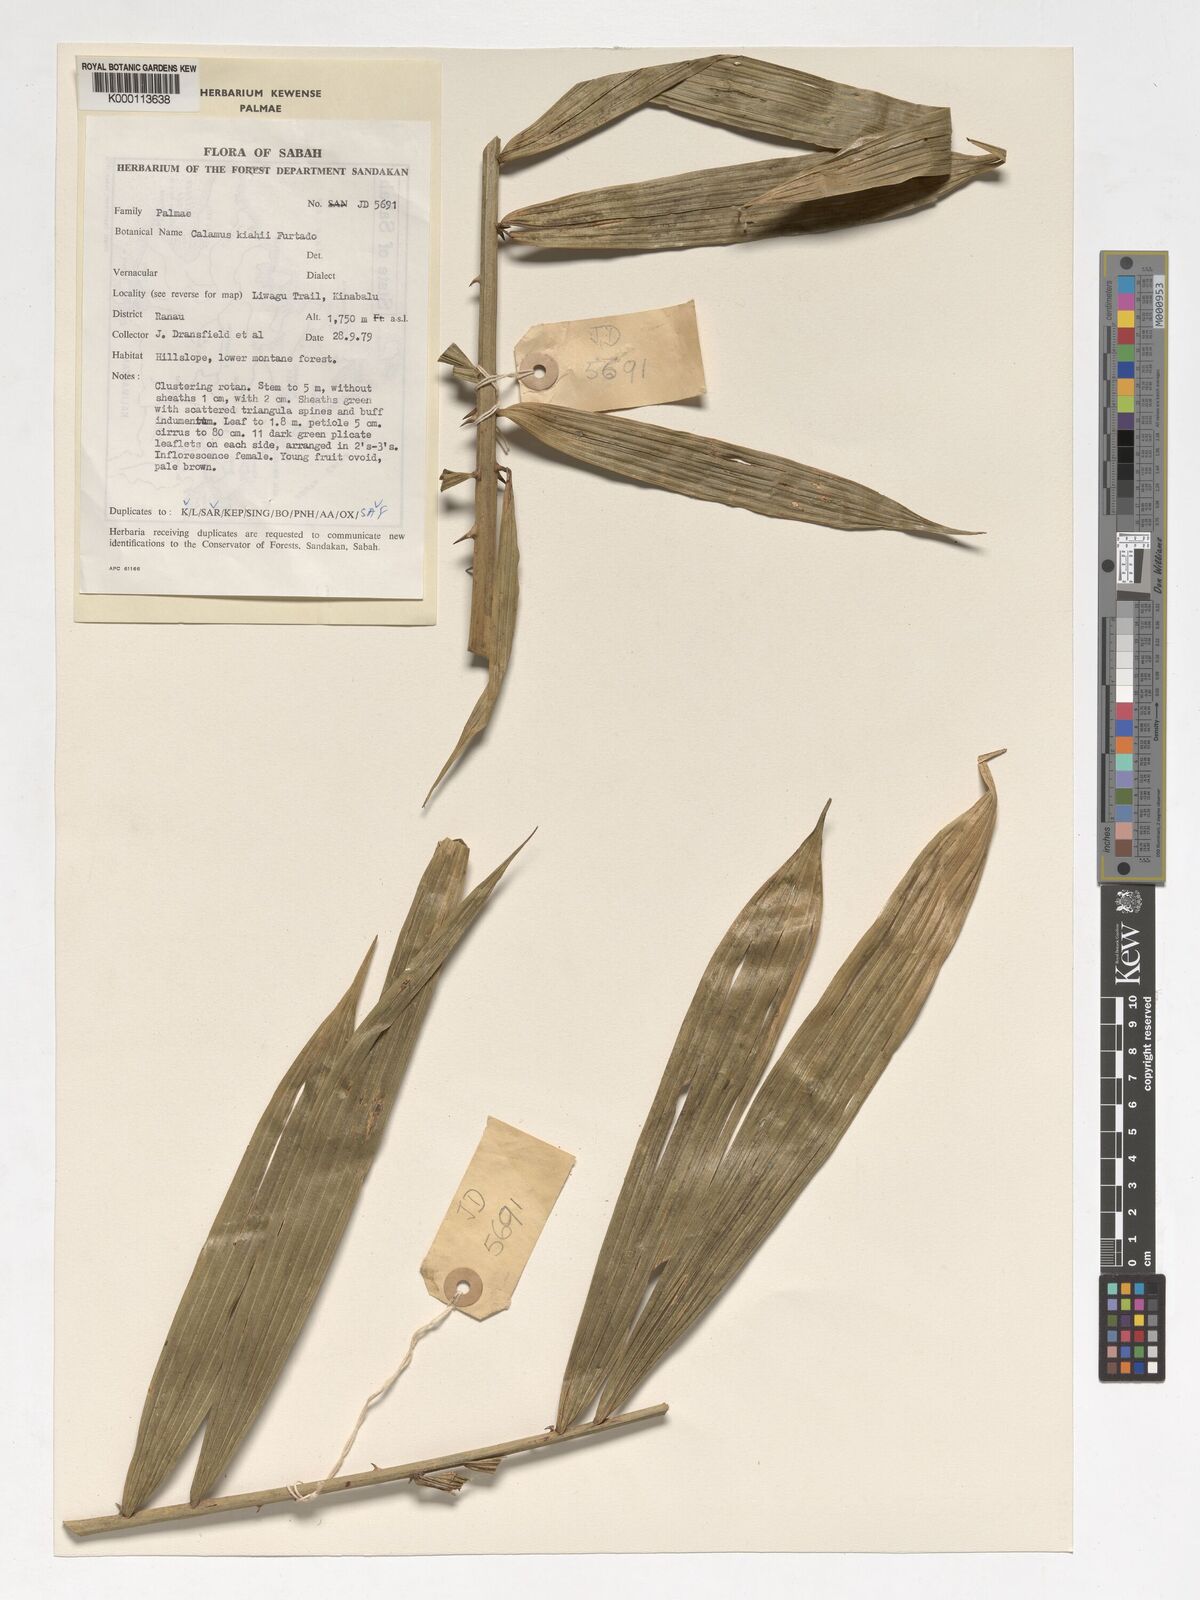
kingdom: Plantae
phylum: Tracheophyta
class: Liliopsida
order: Arecales
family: Arecaceae
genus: Calamus
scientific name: Calamus plicatus
